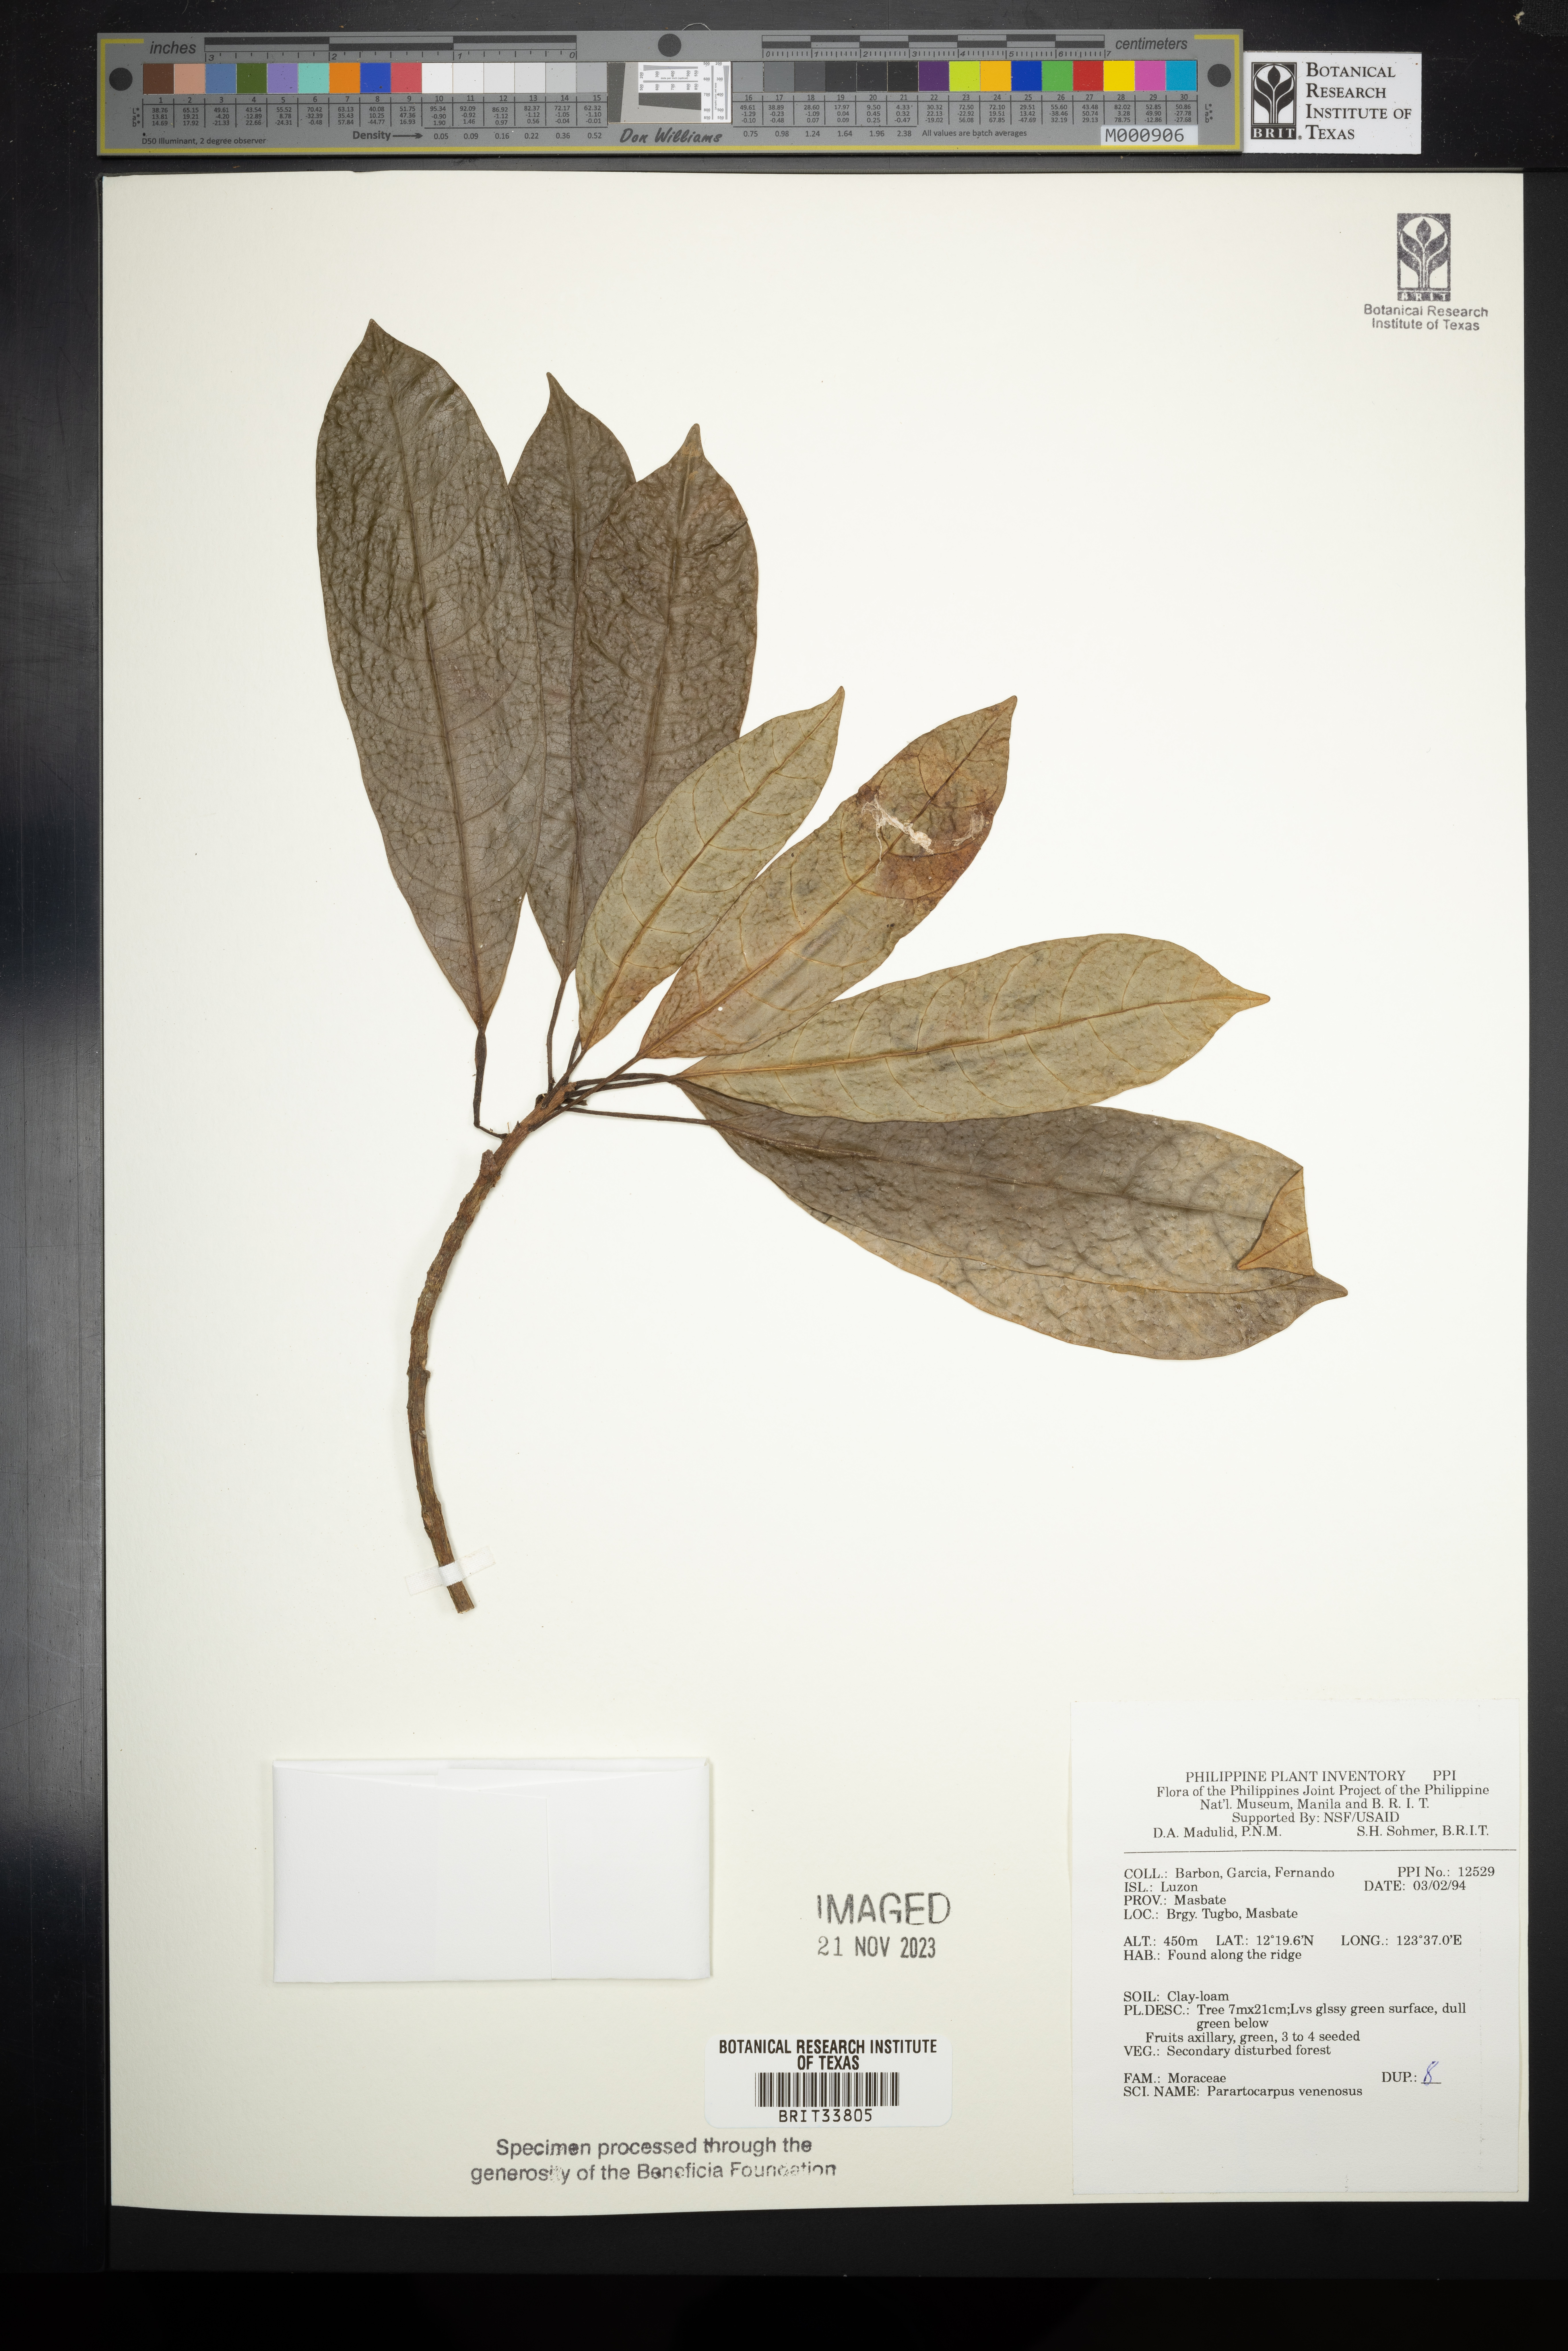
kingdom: Plantae
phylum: Tracheophyta
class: Magnoliopsida
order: Rosales
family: Moraceae
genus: Parartocarpus
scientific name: Parartocarpus venenosa
